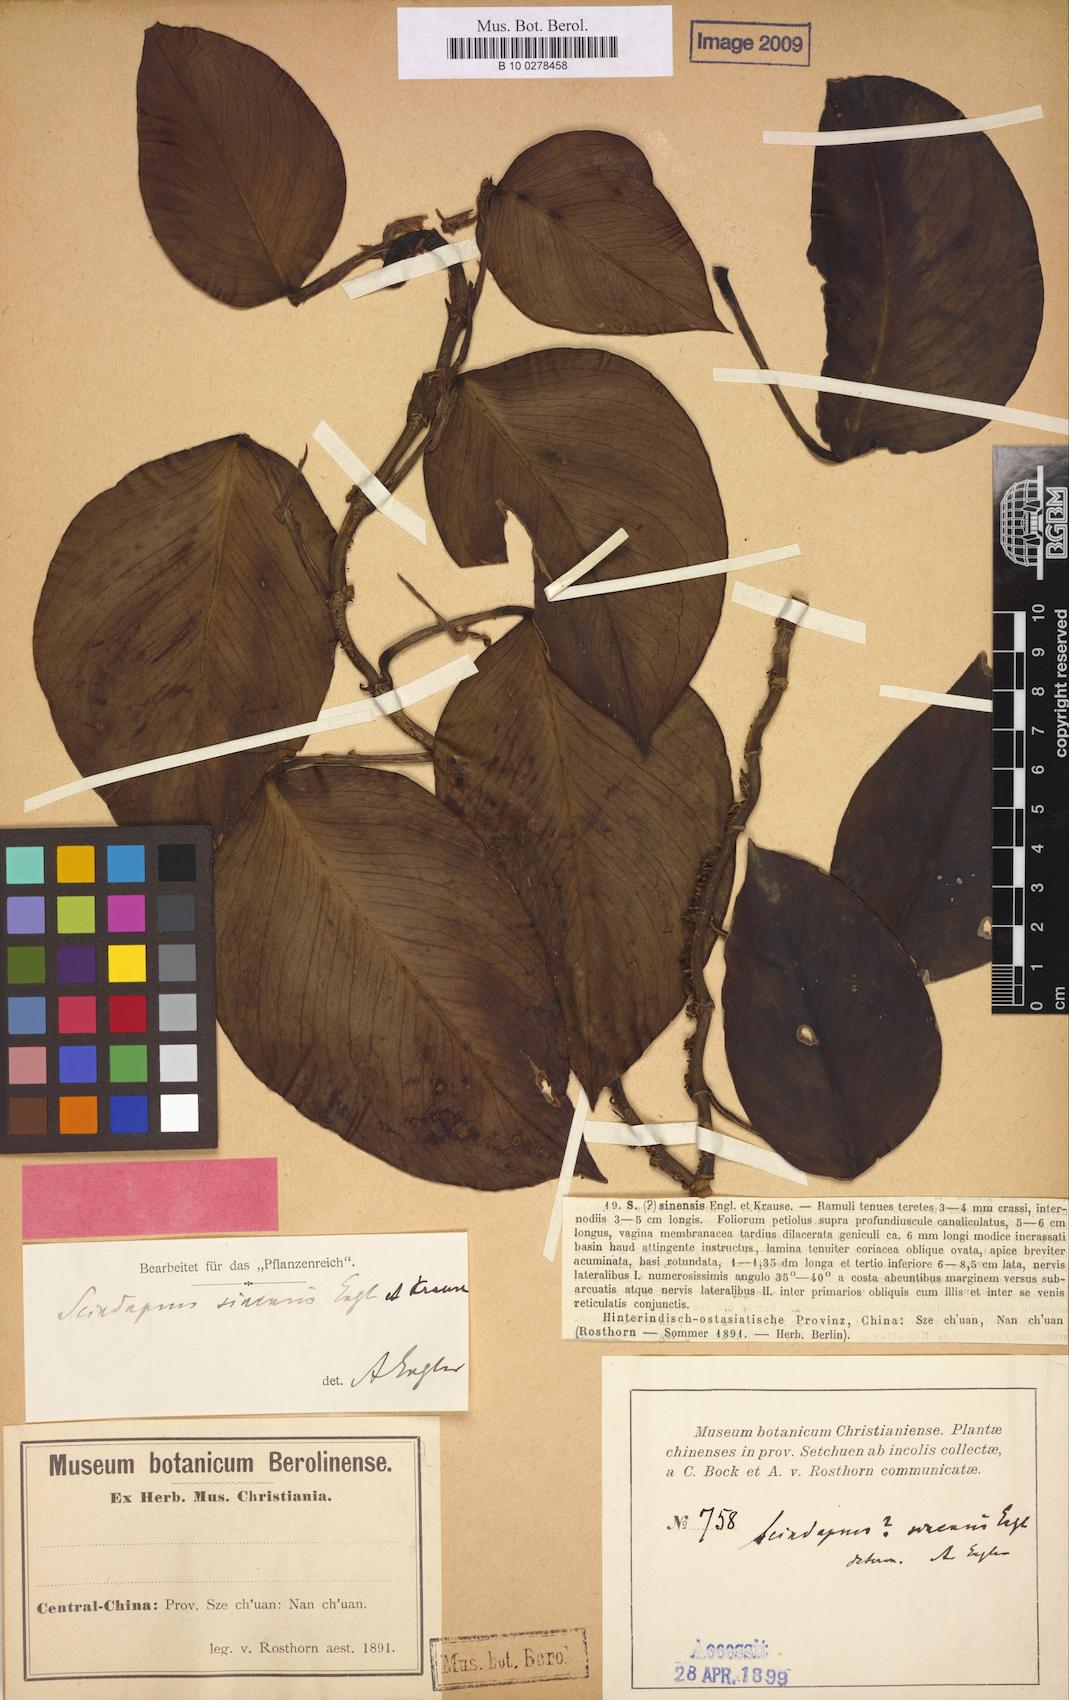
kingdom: Plantae
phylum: Tracheophyta
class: Liliopsida
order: Alismatales
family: Araceae
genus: Amydrium
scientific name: Amydrium sinense
